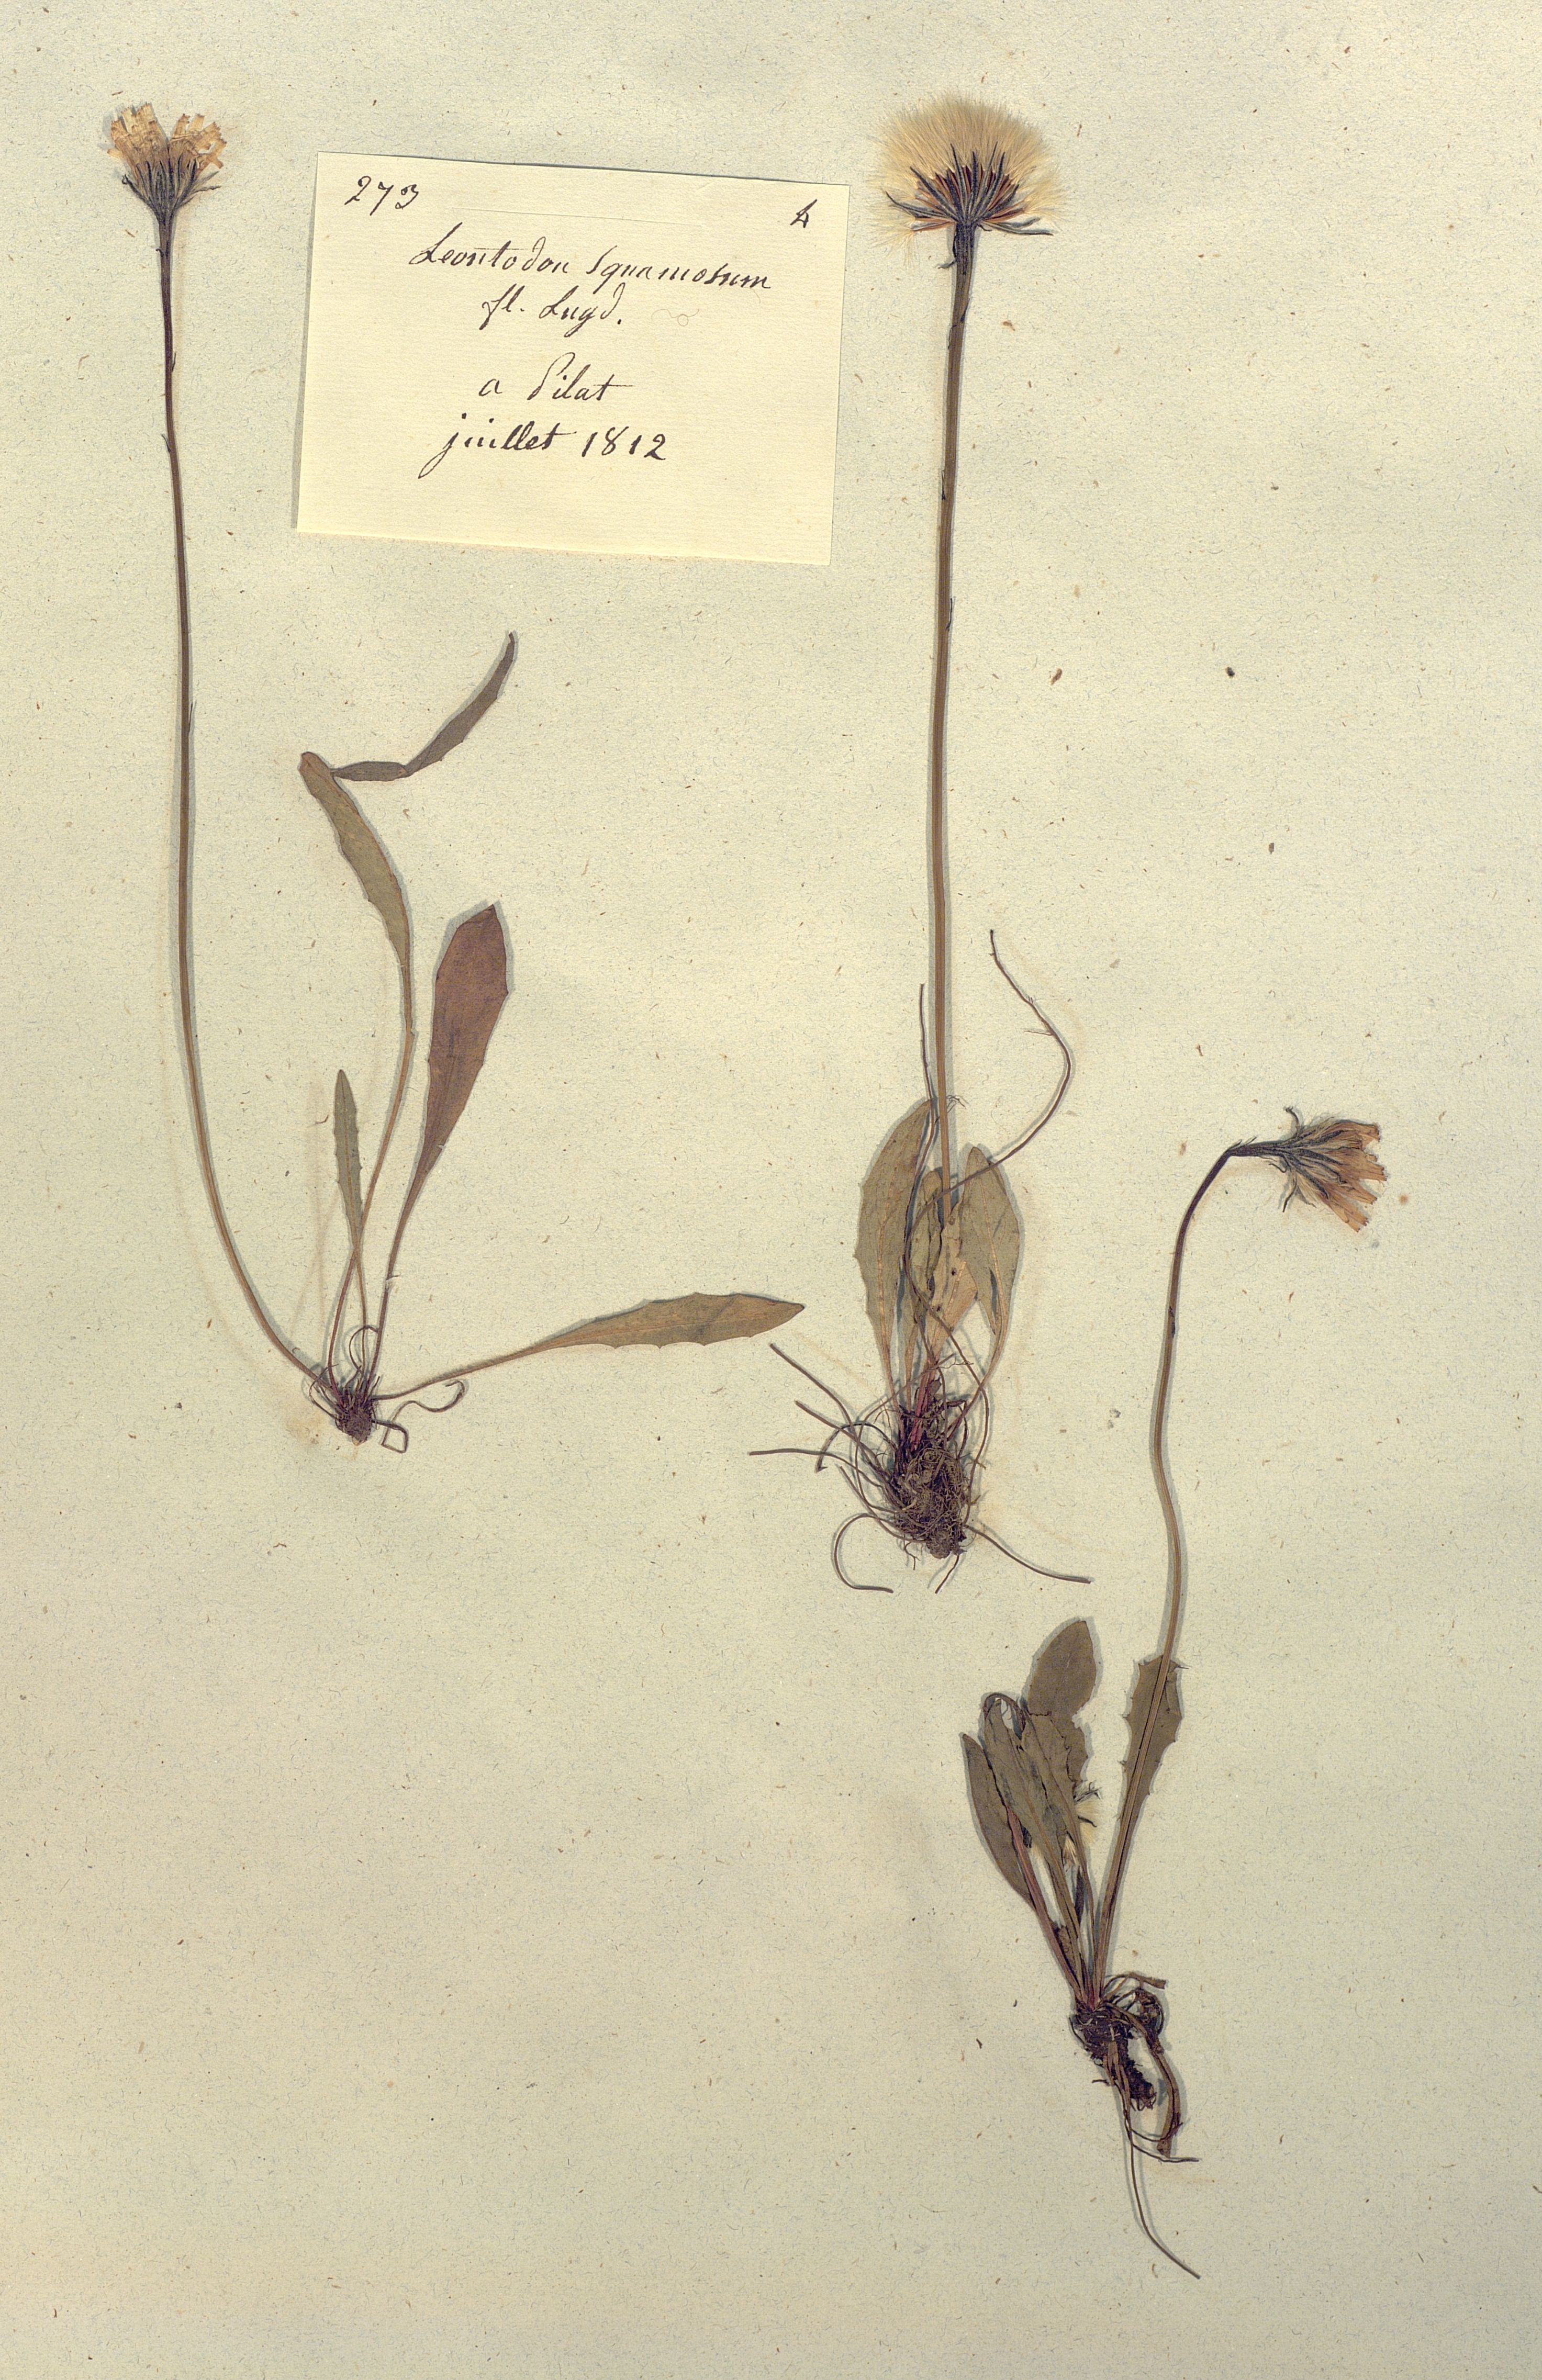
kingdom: Plantae
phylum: Tracheophyta
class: Magnoliopsida
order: Asterales
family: Asteraceae
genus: Scorzoneroides
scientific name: Scorzoneroides pyrenaica
